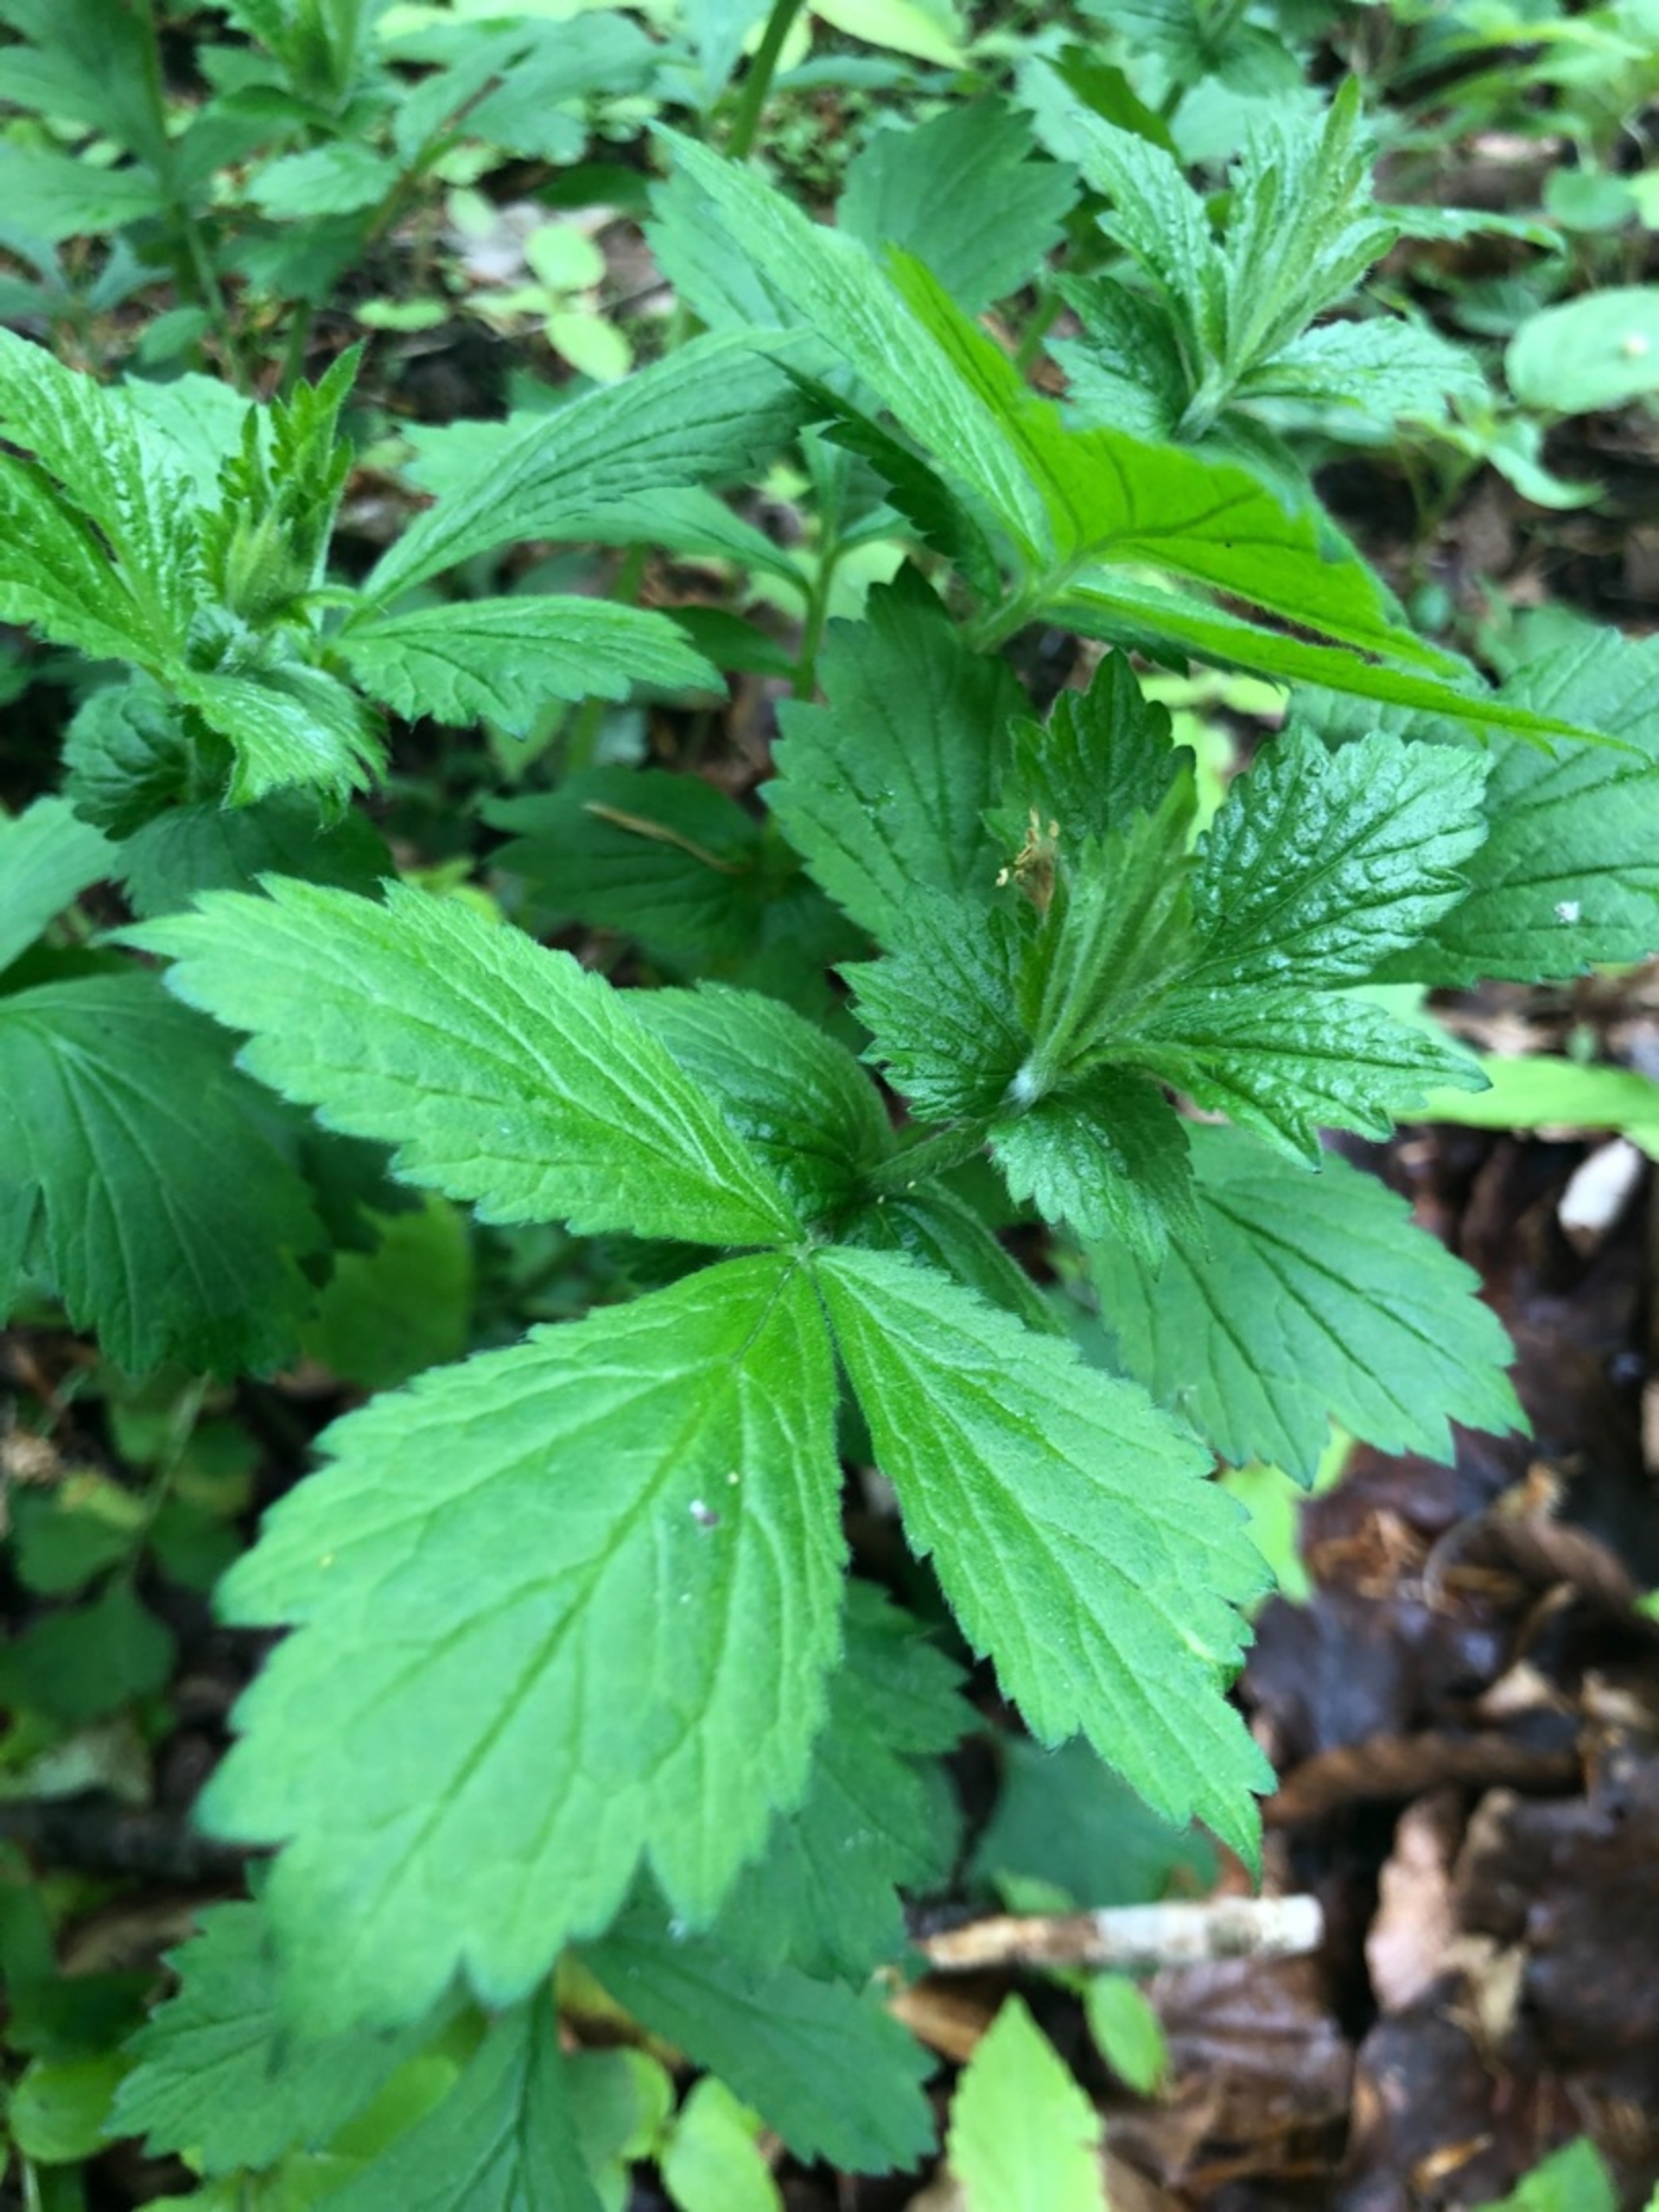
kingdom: Plantae
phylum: Tracheophyta
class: Magnoliopsida
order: Rosales
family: Rosaceae
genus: Geum
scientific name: Geum urbanum
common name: Feber-nellikerod
